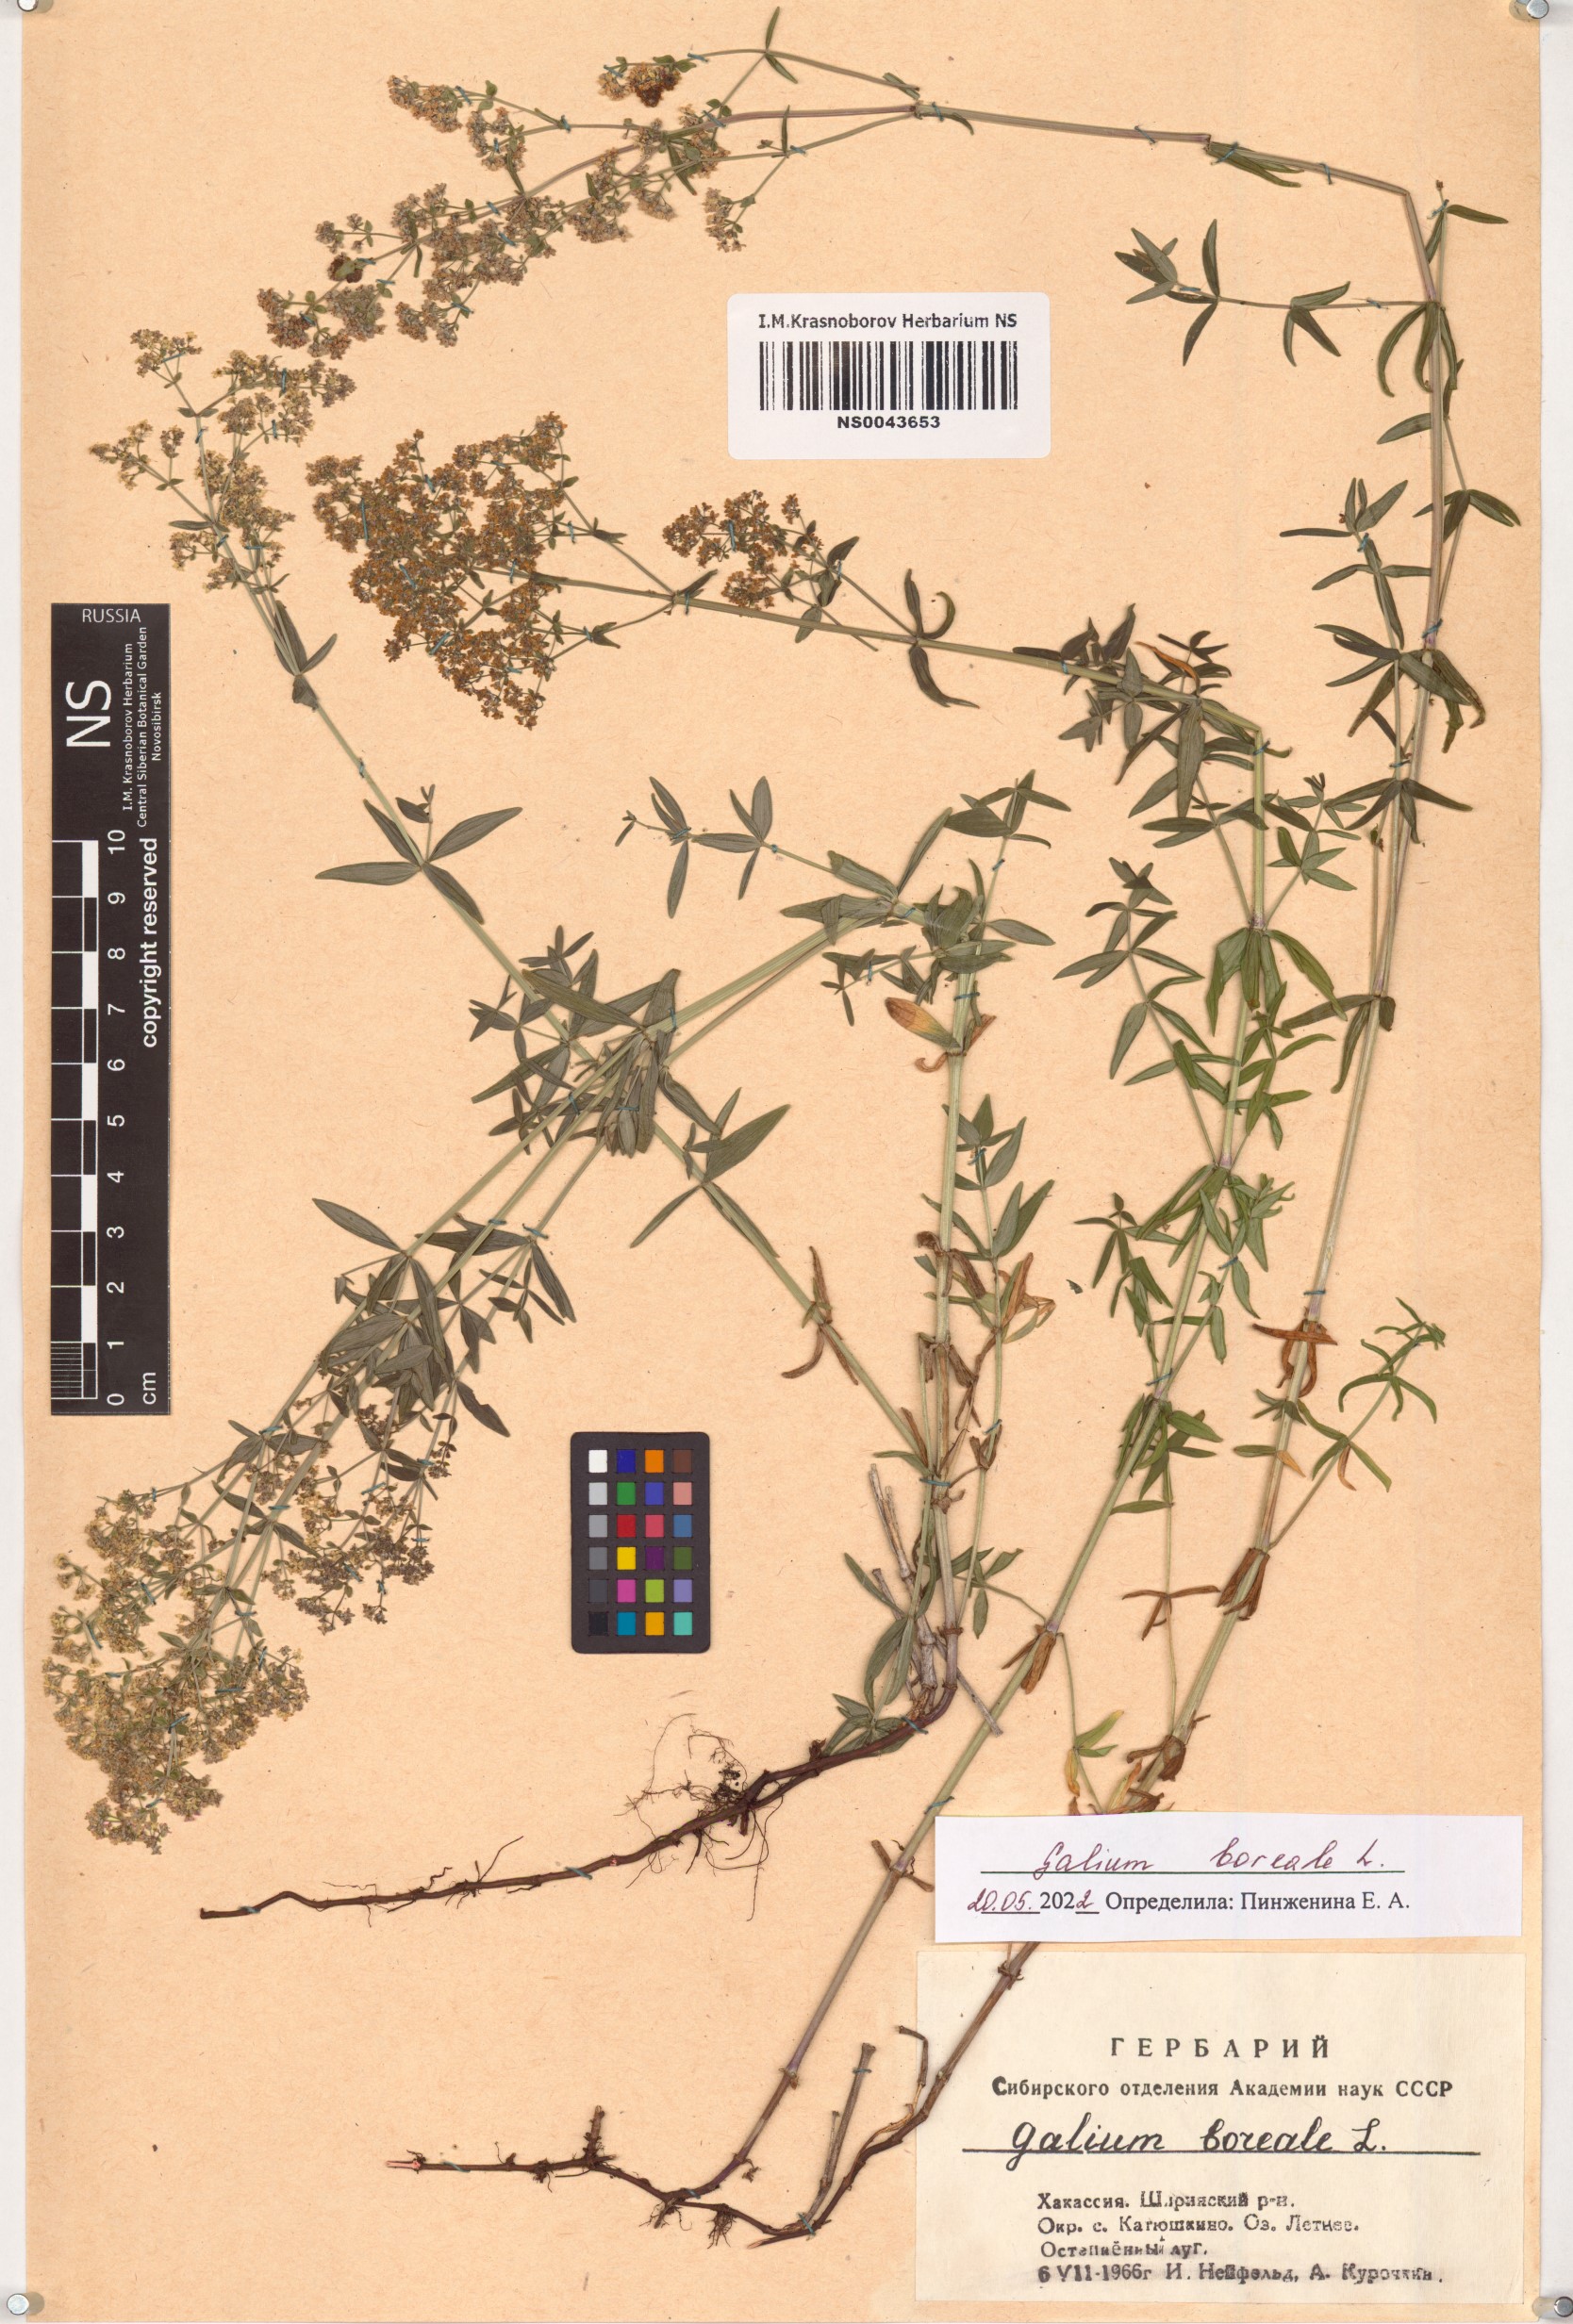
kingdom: Plantae
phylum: Tracheophyta
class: Magnoliopsida
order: Gentianales
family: Rubiaceae
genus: Galium
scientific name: Galium boreale
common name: Northern bedstraw
